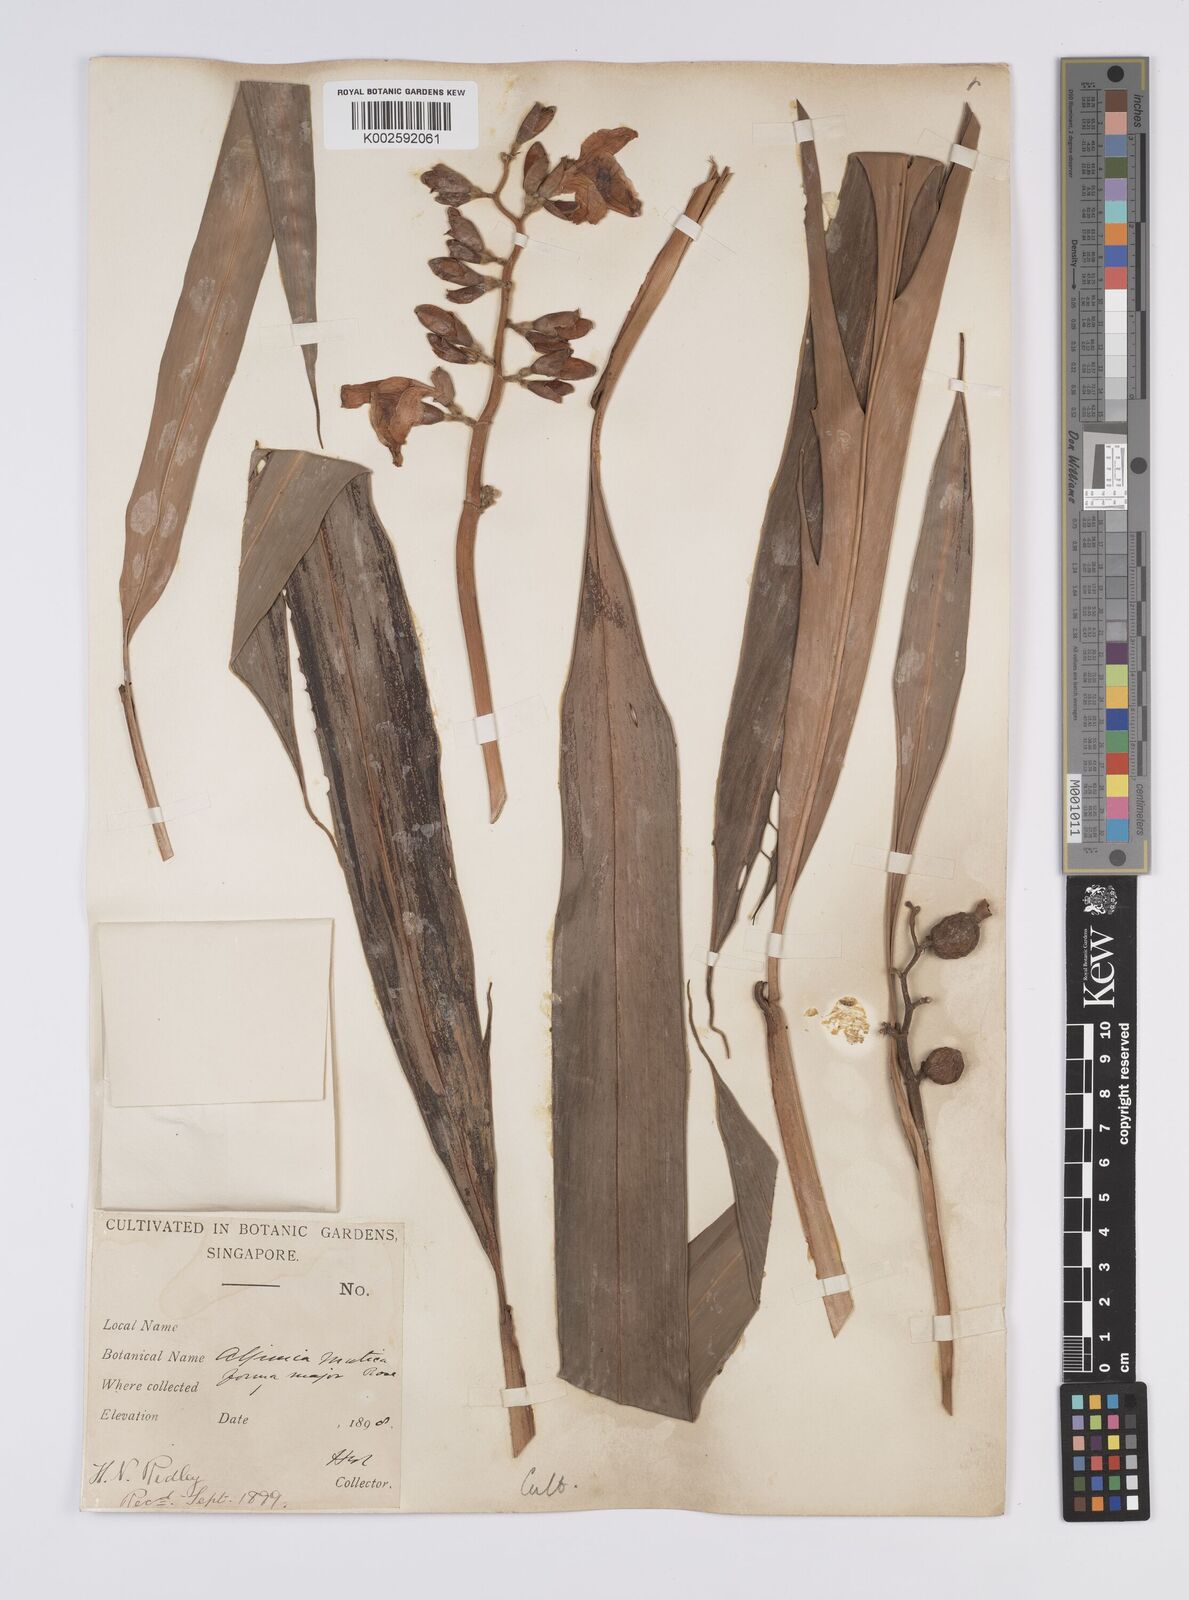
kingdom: Plantae
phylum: Tracheophyta
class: Liliopsida
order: Zingiberales
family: Zingiberaceae
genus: Alpinia
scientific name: Alpinia mutica
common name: Small shell ginger
